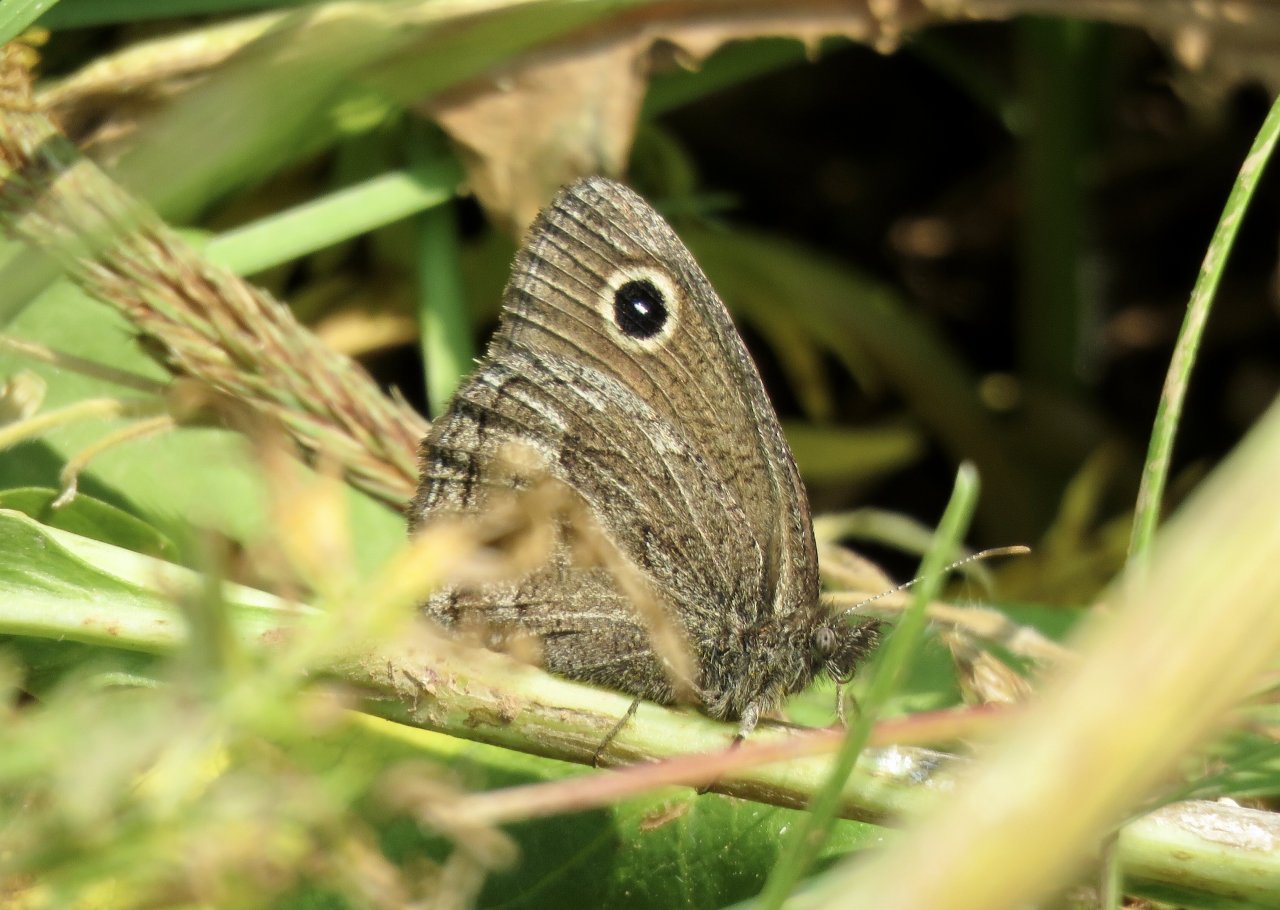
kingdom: Animalia
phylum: Arthropoda
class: Insecta
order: Lepidoptera
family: Nymphalidae
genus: Cercyonis
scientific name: Cercyonis oetus
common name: Small Wood-Nymph
